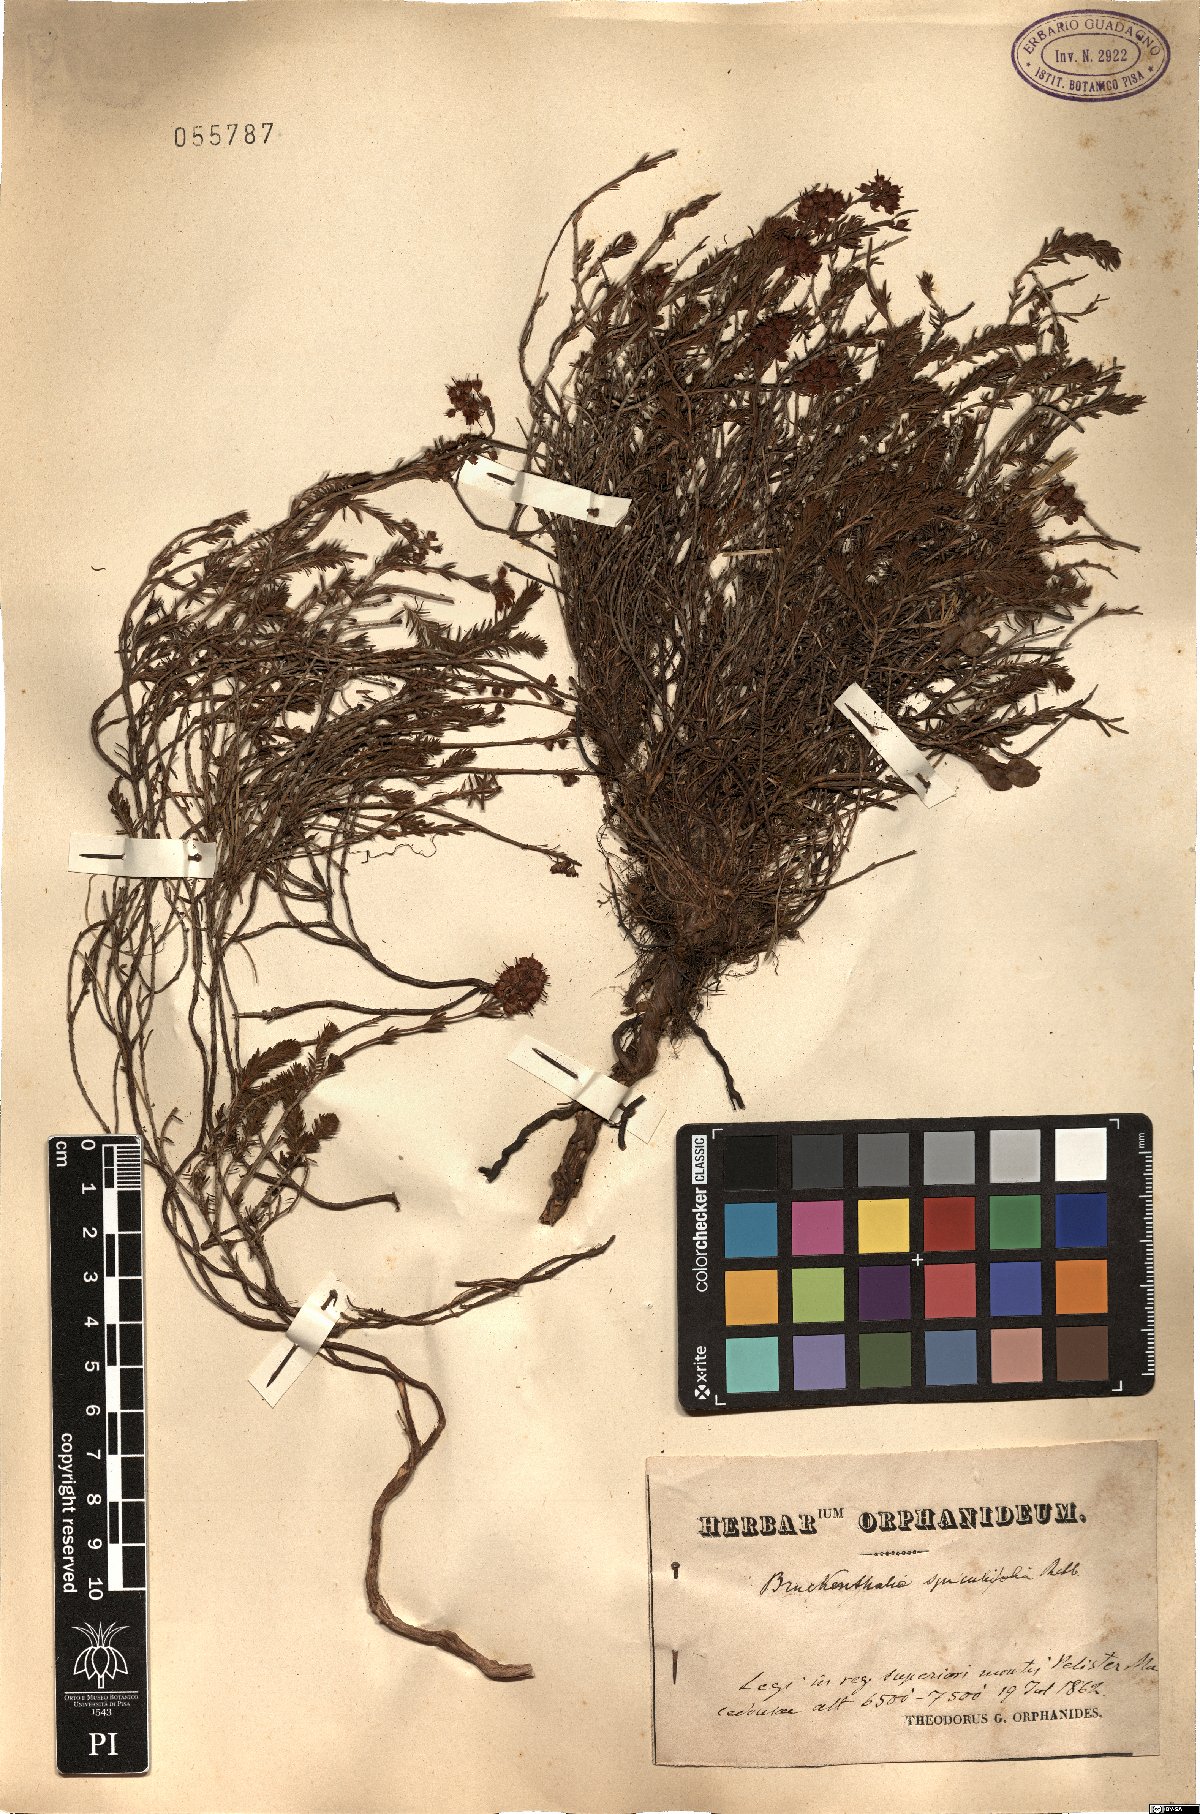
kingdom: Plantae
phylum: Tracheophyta
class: Magnoliopsida
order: Ericales
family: Ericaceae
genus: Erica
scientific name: Erica spiculifolia
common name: Spike heath
